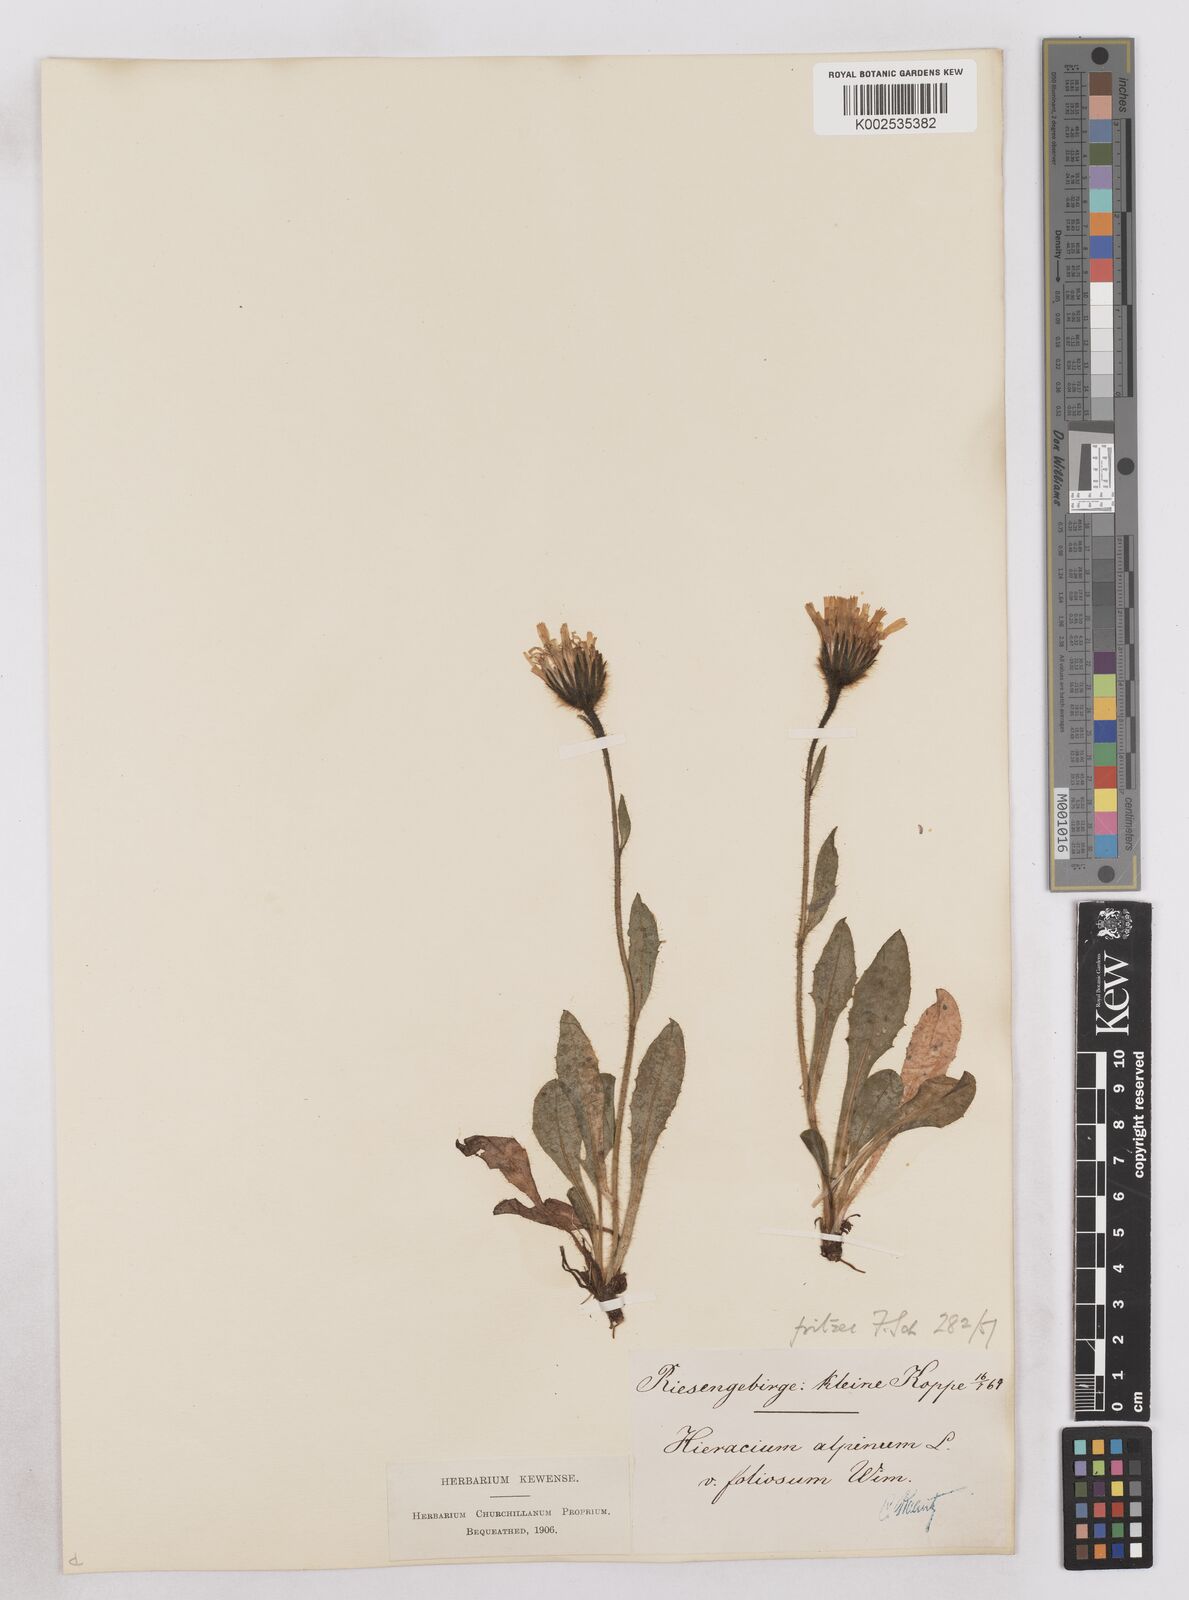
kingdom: Plantae
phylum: Tracheophyta
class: Magnoliopsida
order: Asterales
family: Asteraceae
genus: Hieracium
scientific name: Hieracium fritzei
